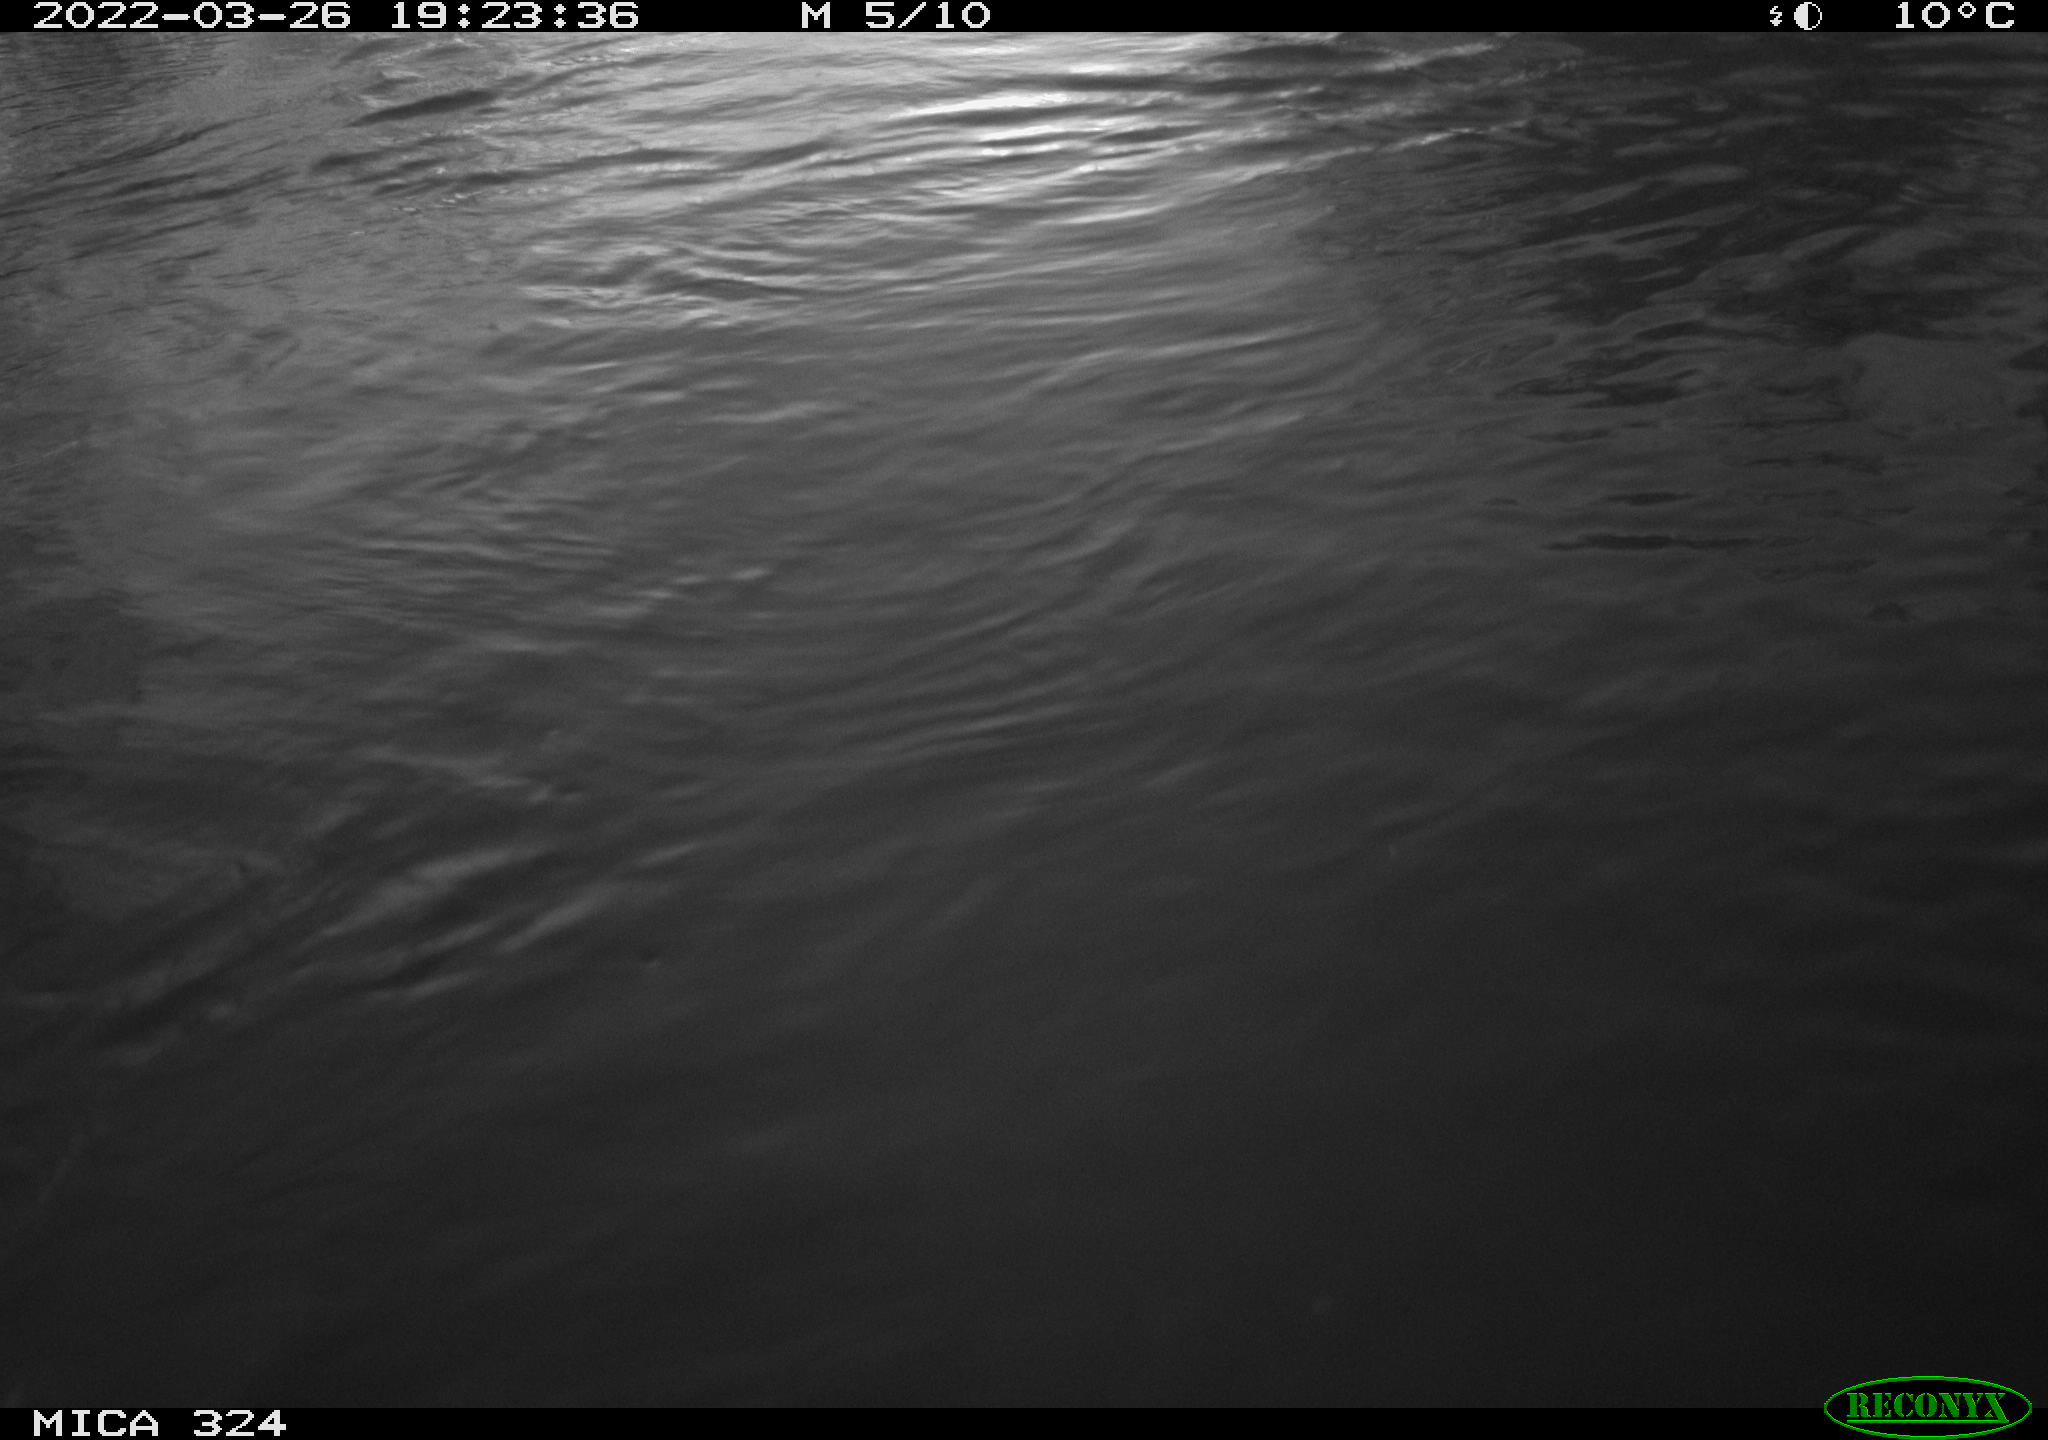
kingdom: Animalia
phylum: Chordata
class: Mammalia
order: Rodentia
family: Cricetidae
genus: Ondatra
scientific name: Ondatra zibethicus
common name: Muskrat
